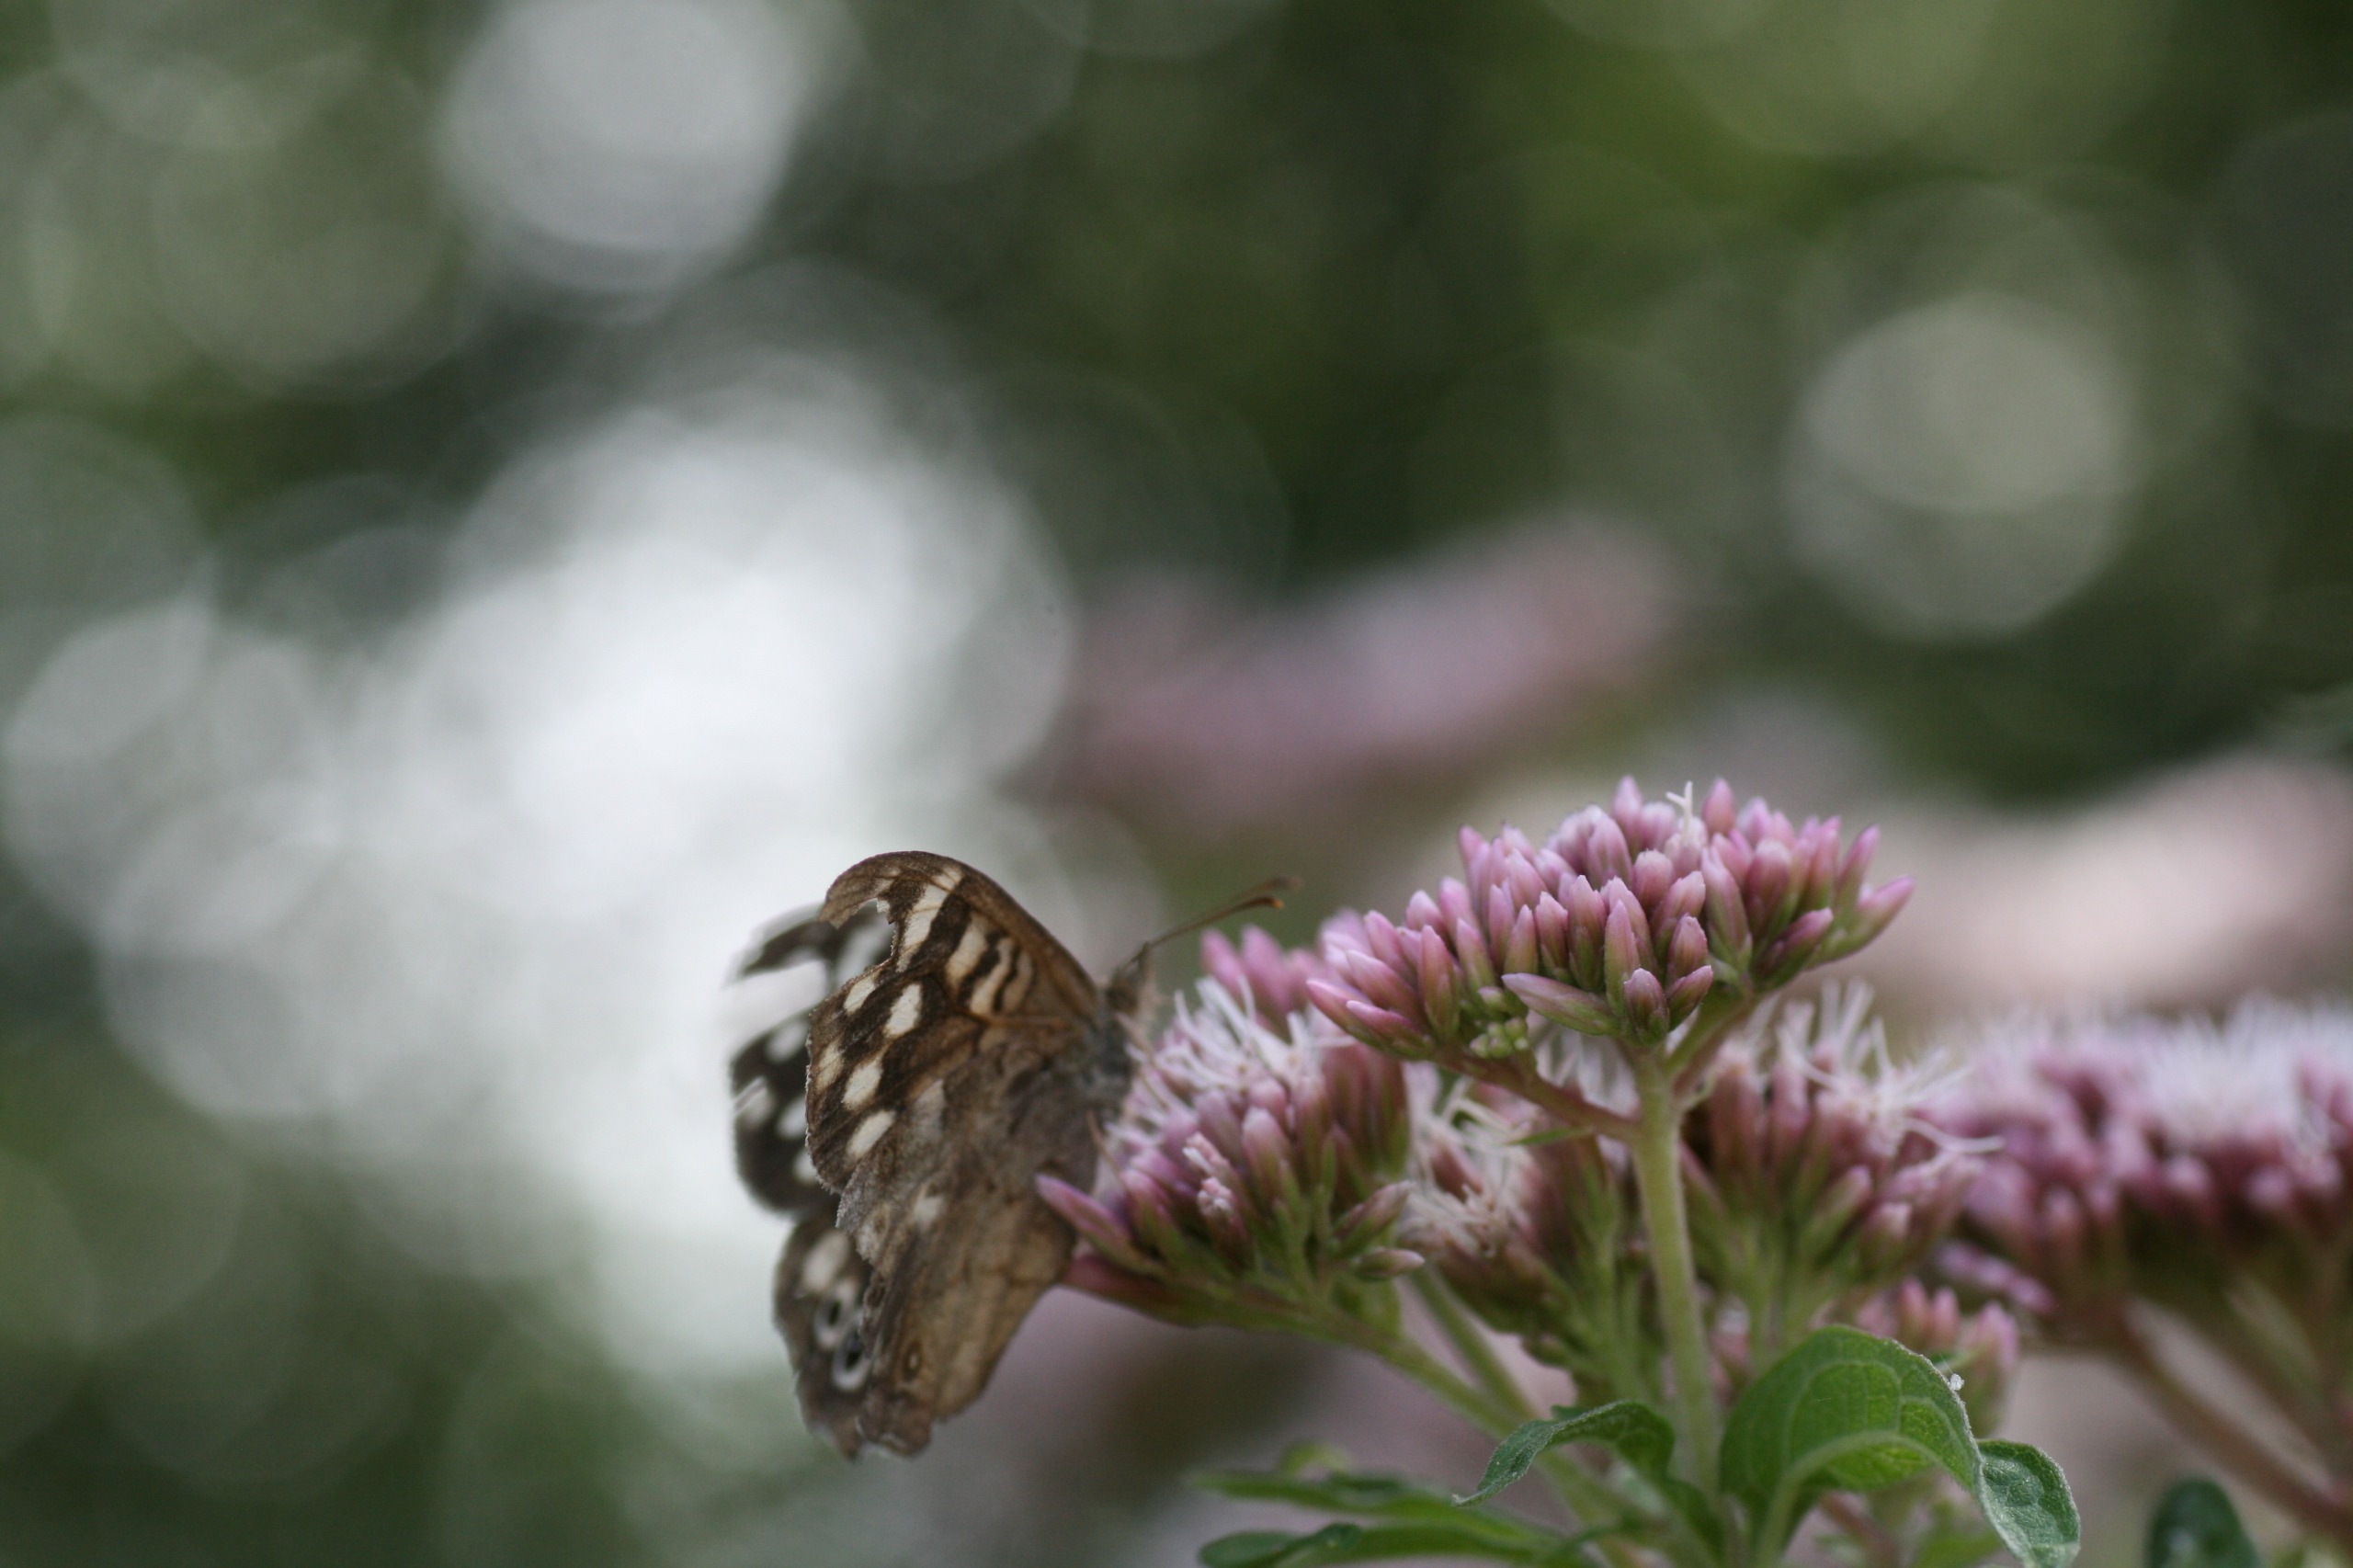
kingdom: Animalia
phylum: Arthropoda
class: Insecta
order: Lepidoptera
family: Nymphalidae
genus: Pararge
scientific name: Pararge aegeria
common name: Skovrandøje
